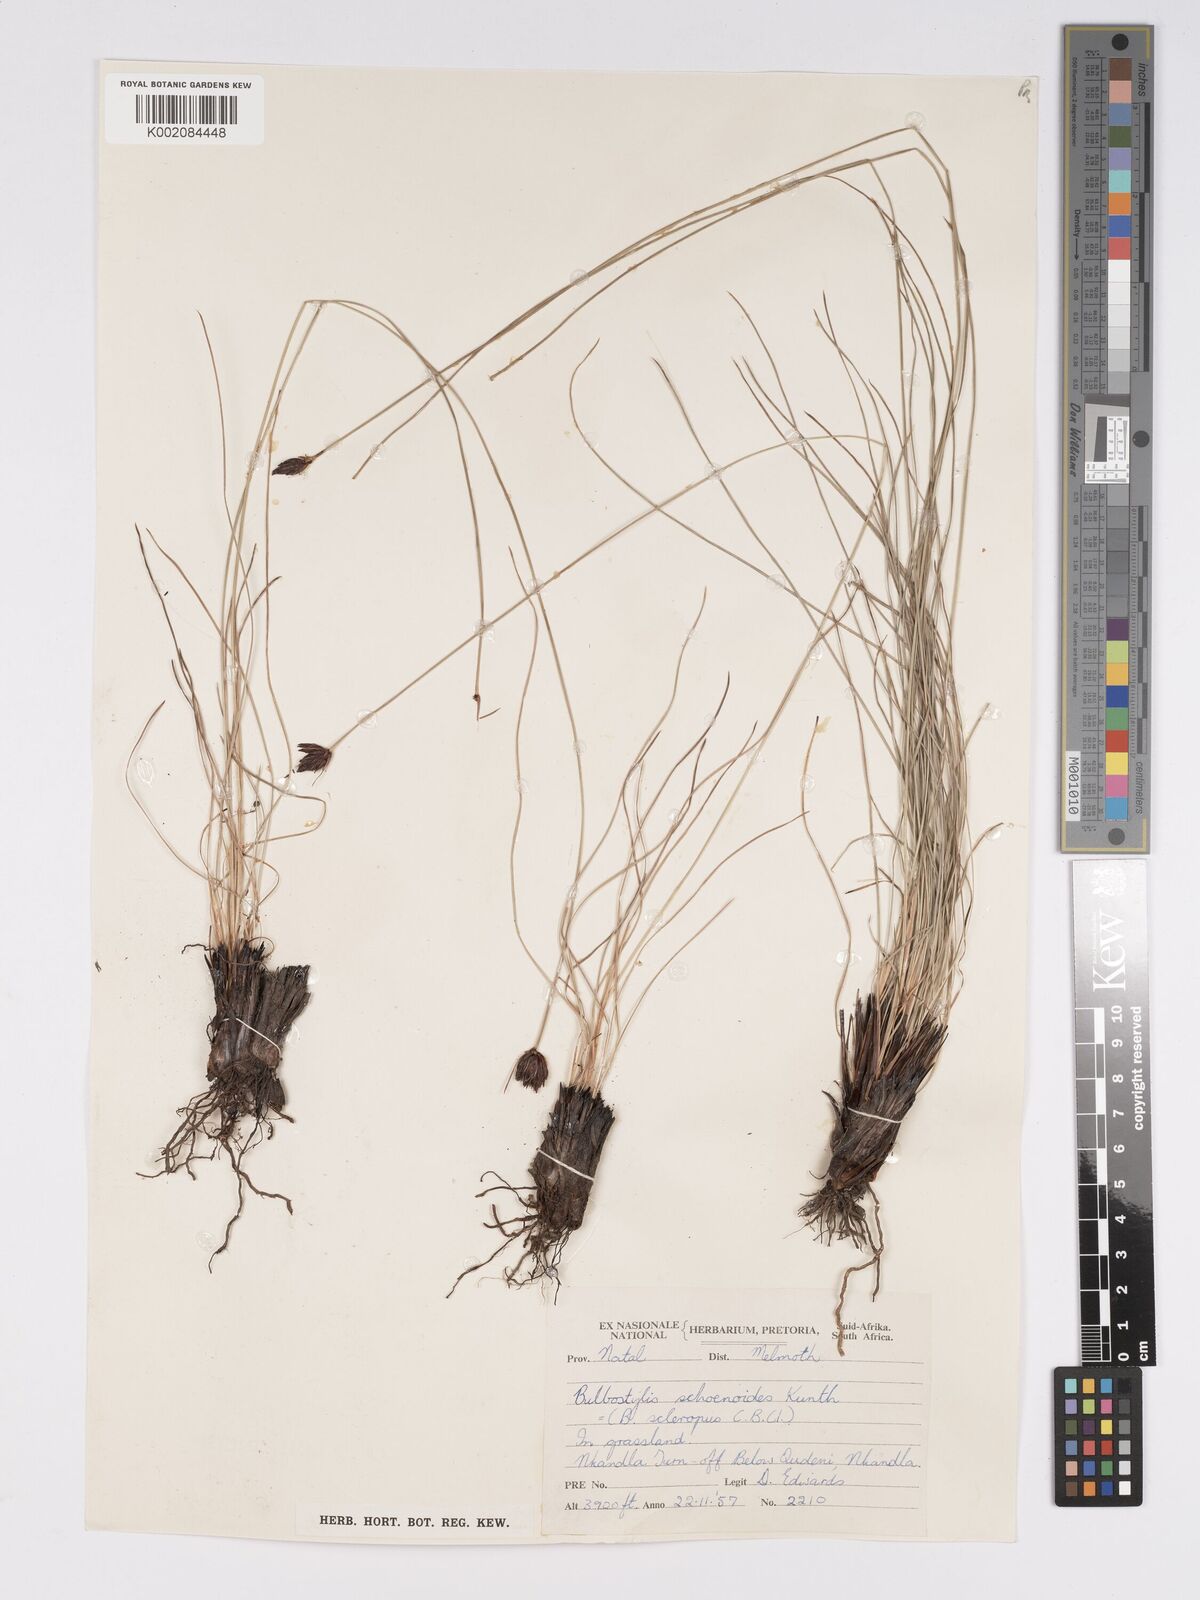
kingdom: Plantae
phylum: Tracheophyta
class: Liliopsida
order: Poales
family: Cyperaceae
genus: Bulbostylis
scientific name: Bulbostylis schoenoides
